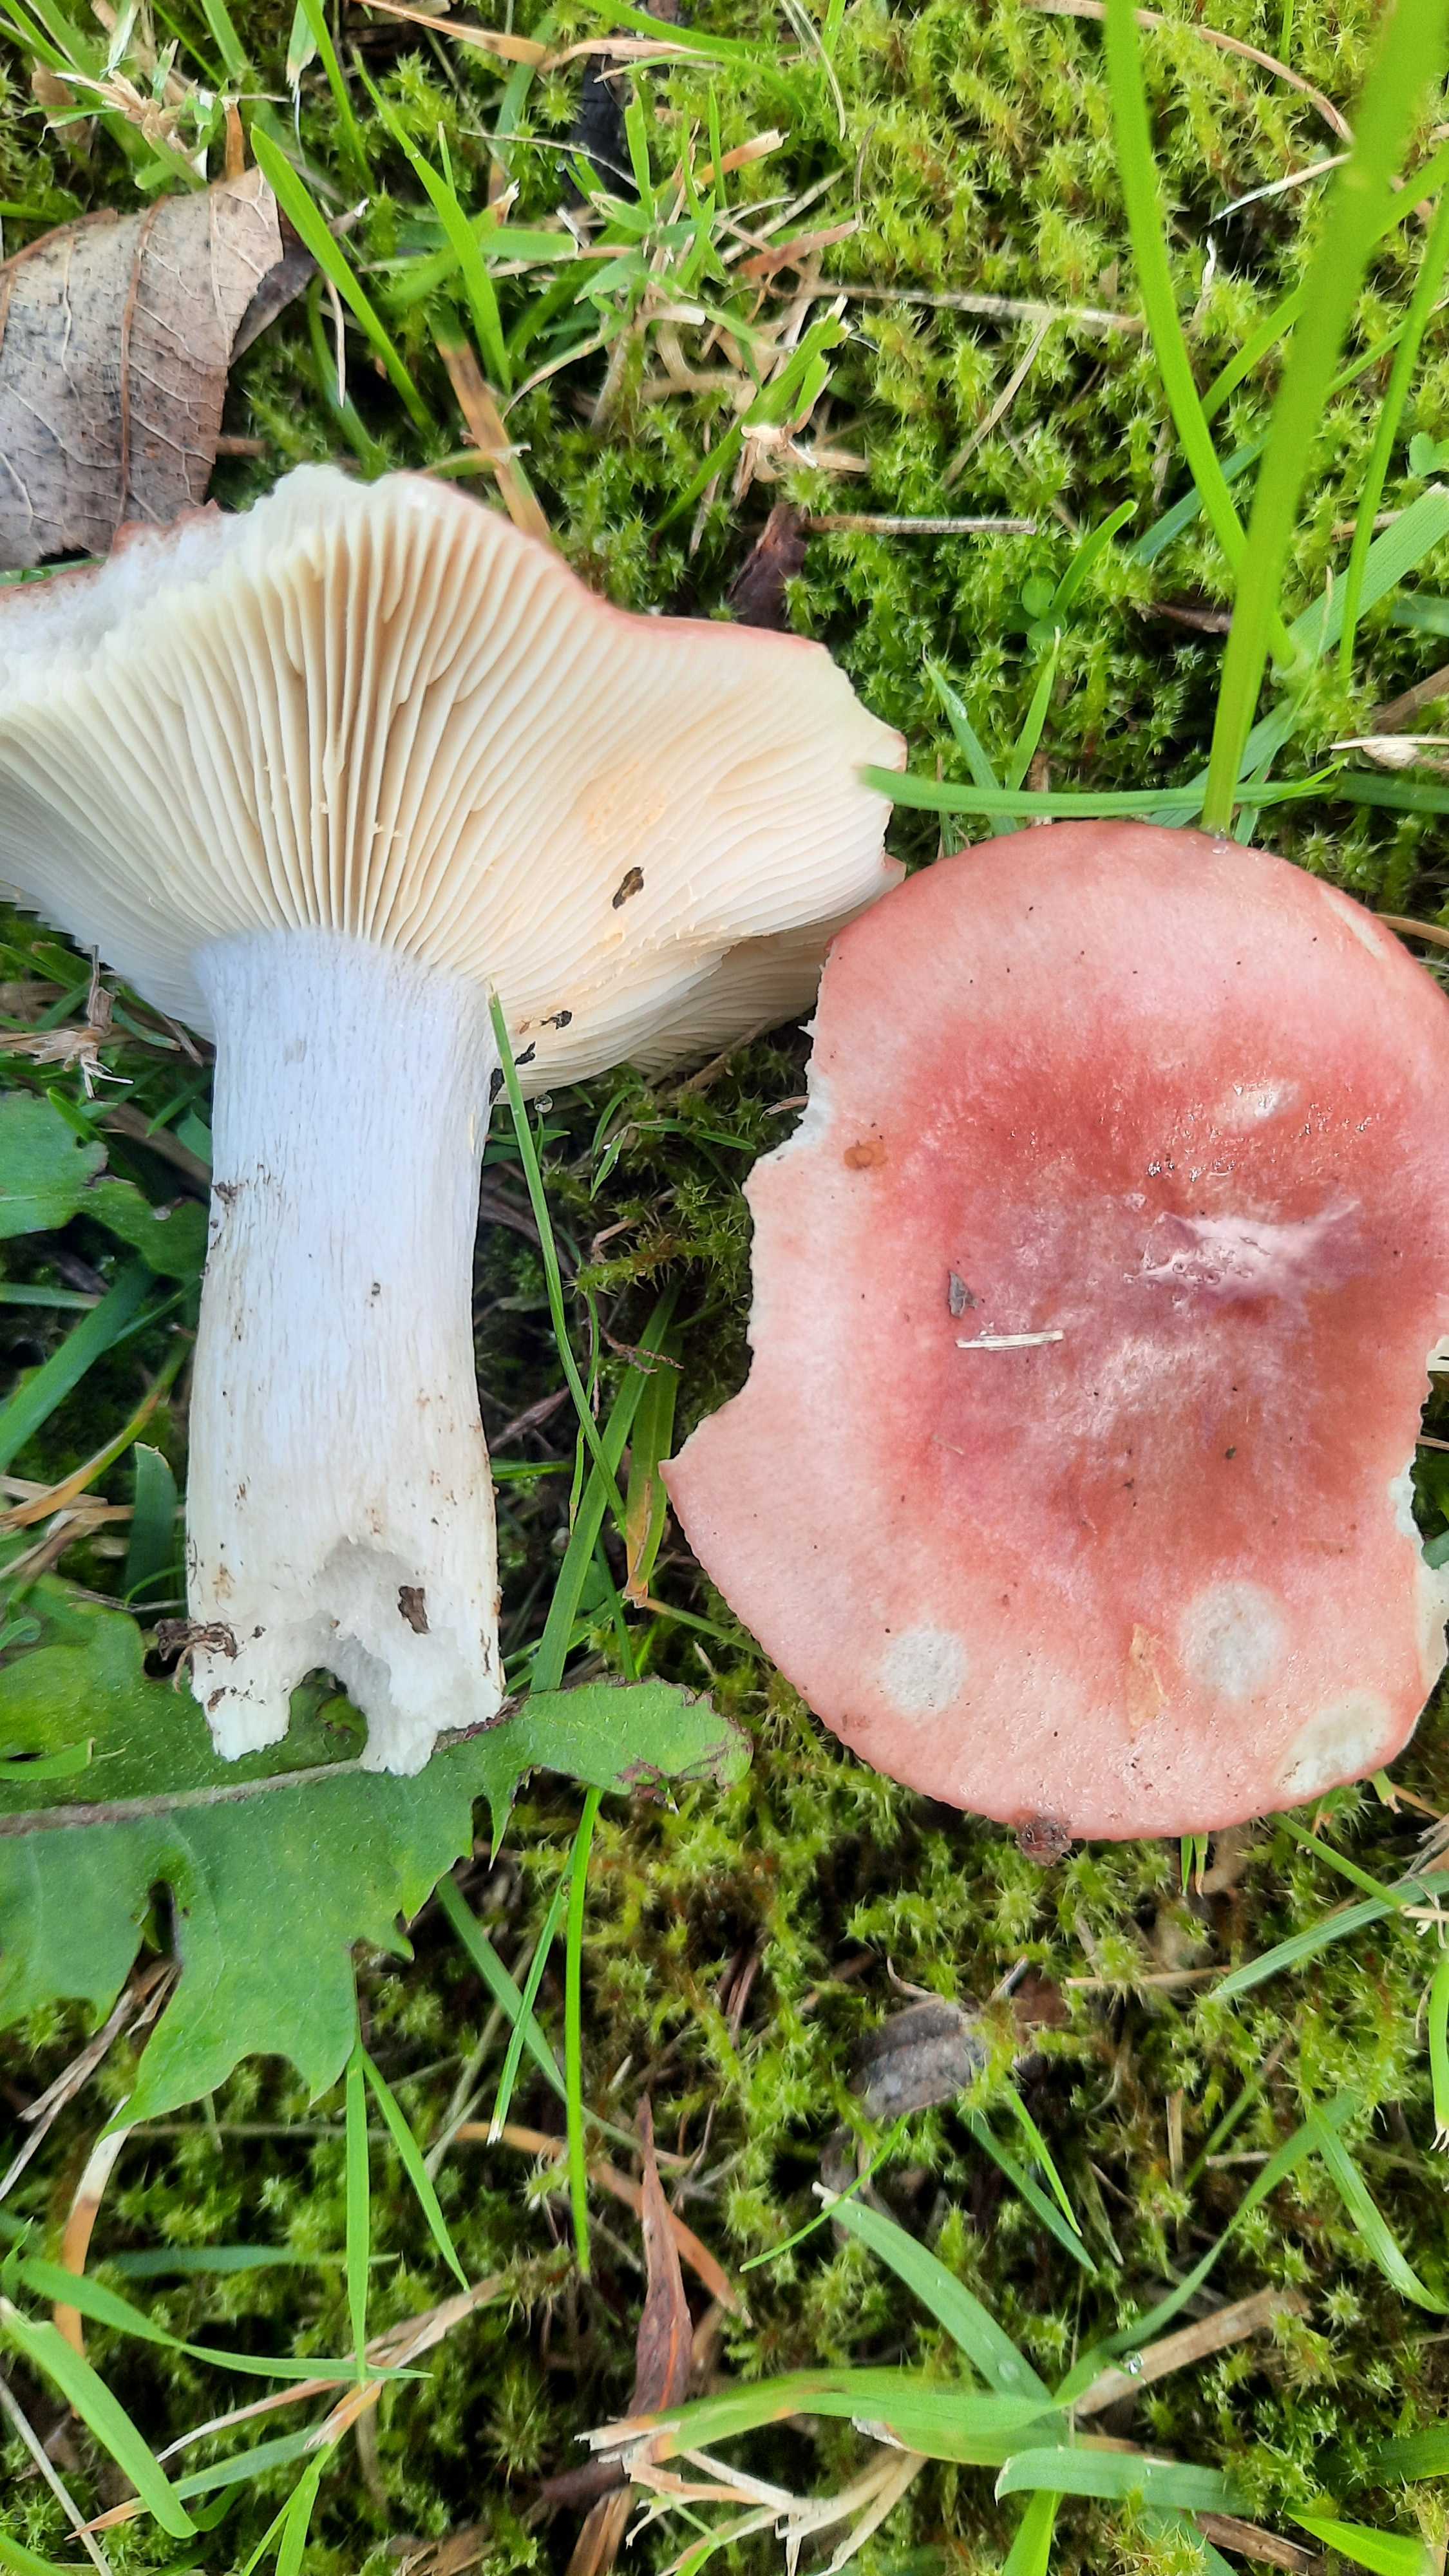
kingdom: Fungi
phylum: Basidiomycota
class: Agaricomycetes
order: Russulales
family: Russulaceae
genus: Russula
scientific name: Russula
